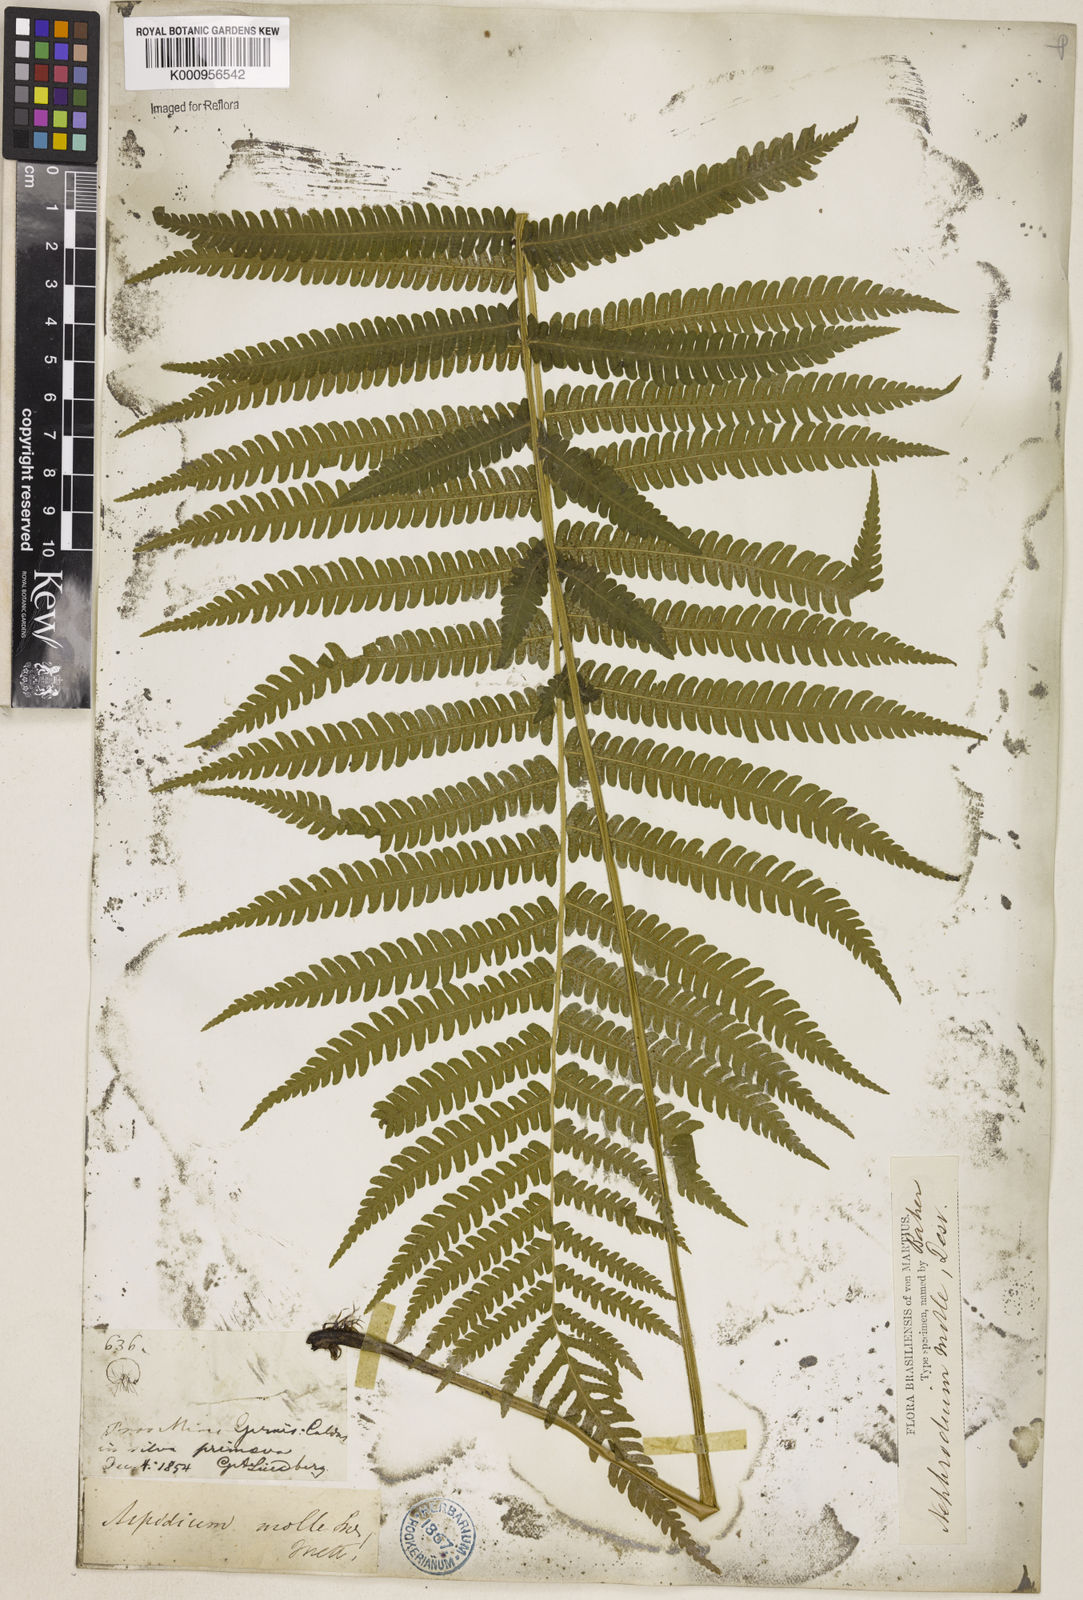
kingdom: Plantae
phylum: Tracheophyta
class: Polypodiopsida
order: Polypodiales
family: Thelypteridaceae
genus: Christella
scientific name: Christella hispidula
